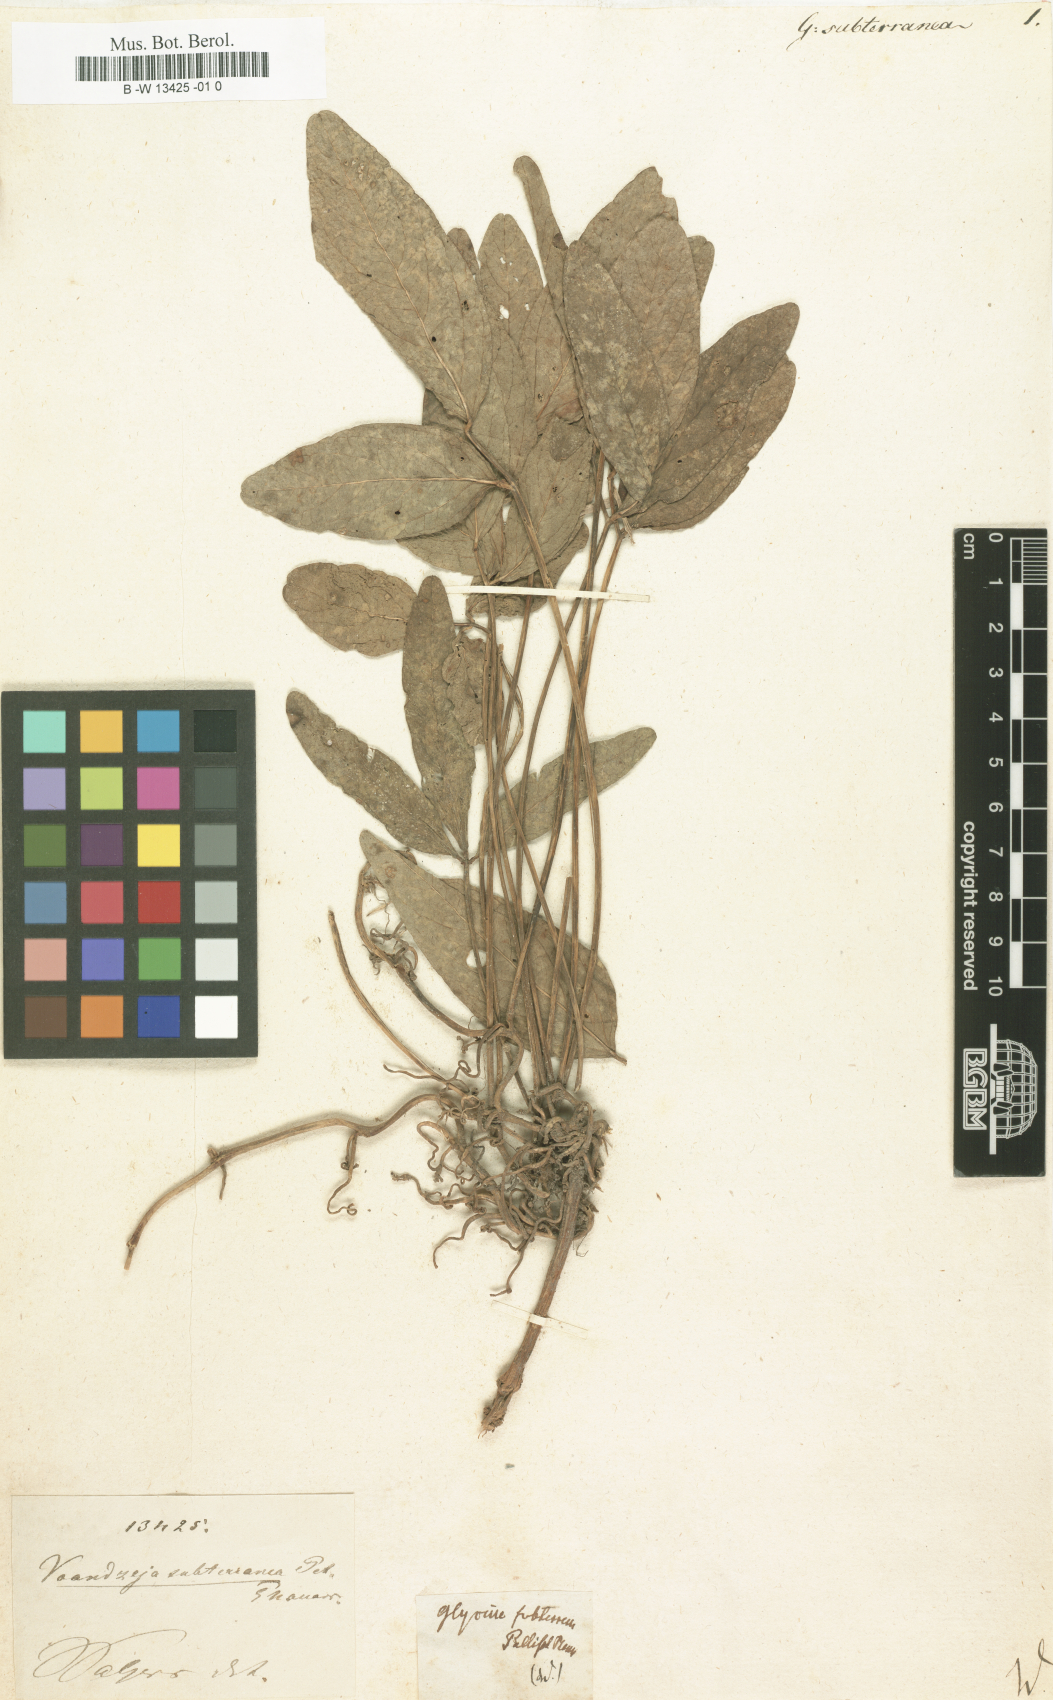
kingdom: Plantae
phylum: Tracheophyta
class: Magnoliopsida
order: Fabales
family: Fabaceae
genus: Vigna
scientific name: Vigna subterranea
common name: Bambara groundnut
